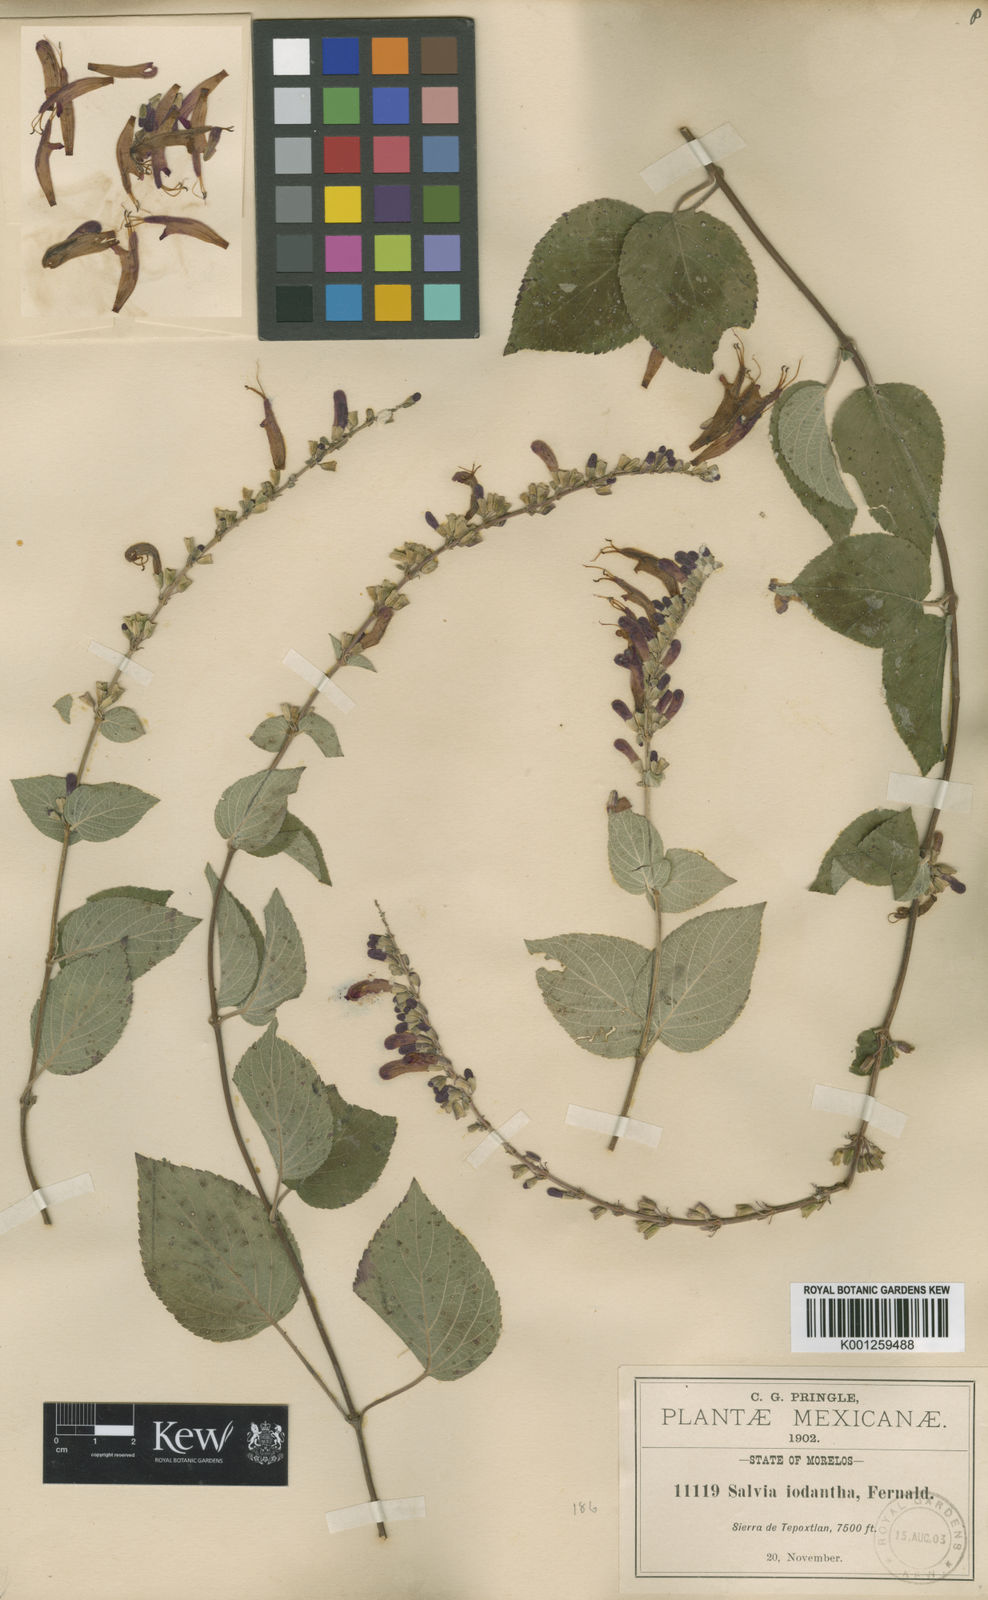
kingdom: Plantae
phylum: Tracheophyta
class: Magnoliopsida
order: Lamiales
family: Lamiaceae
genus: Salvia
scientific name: Salvia iodantha
